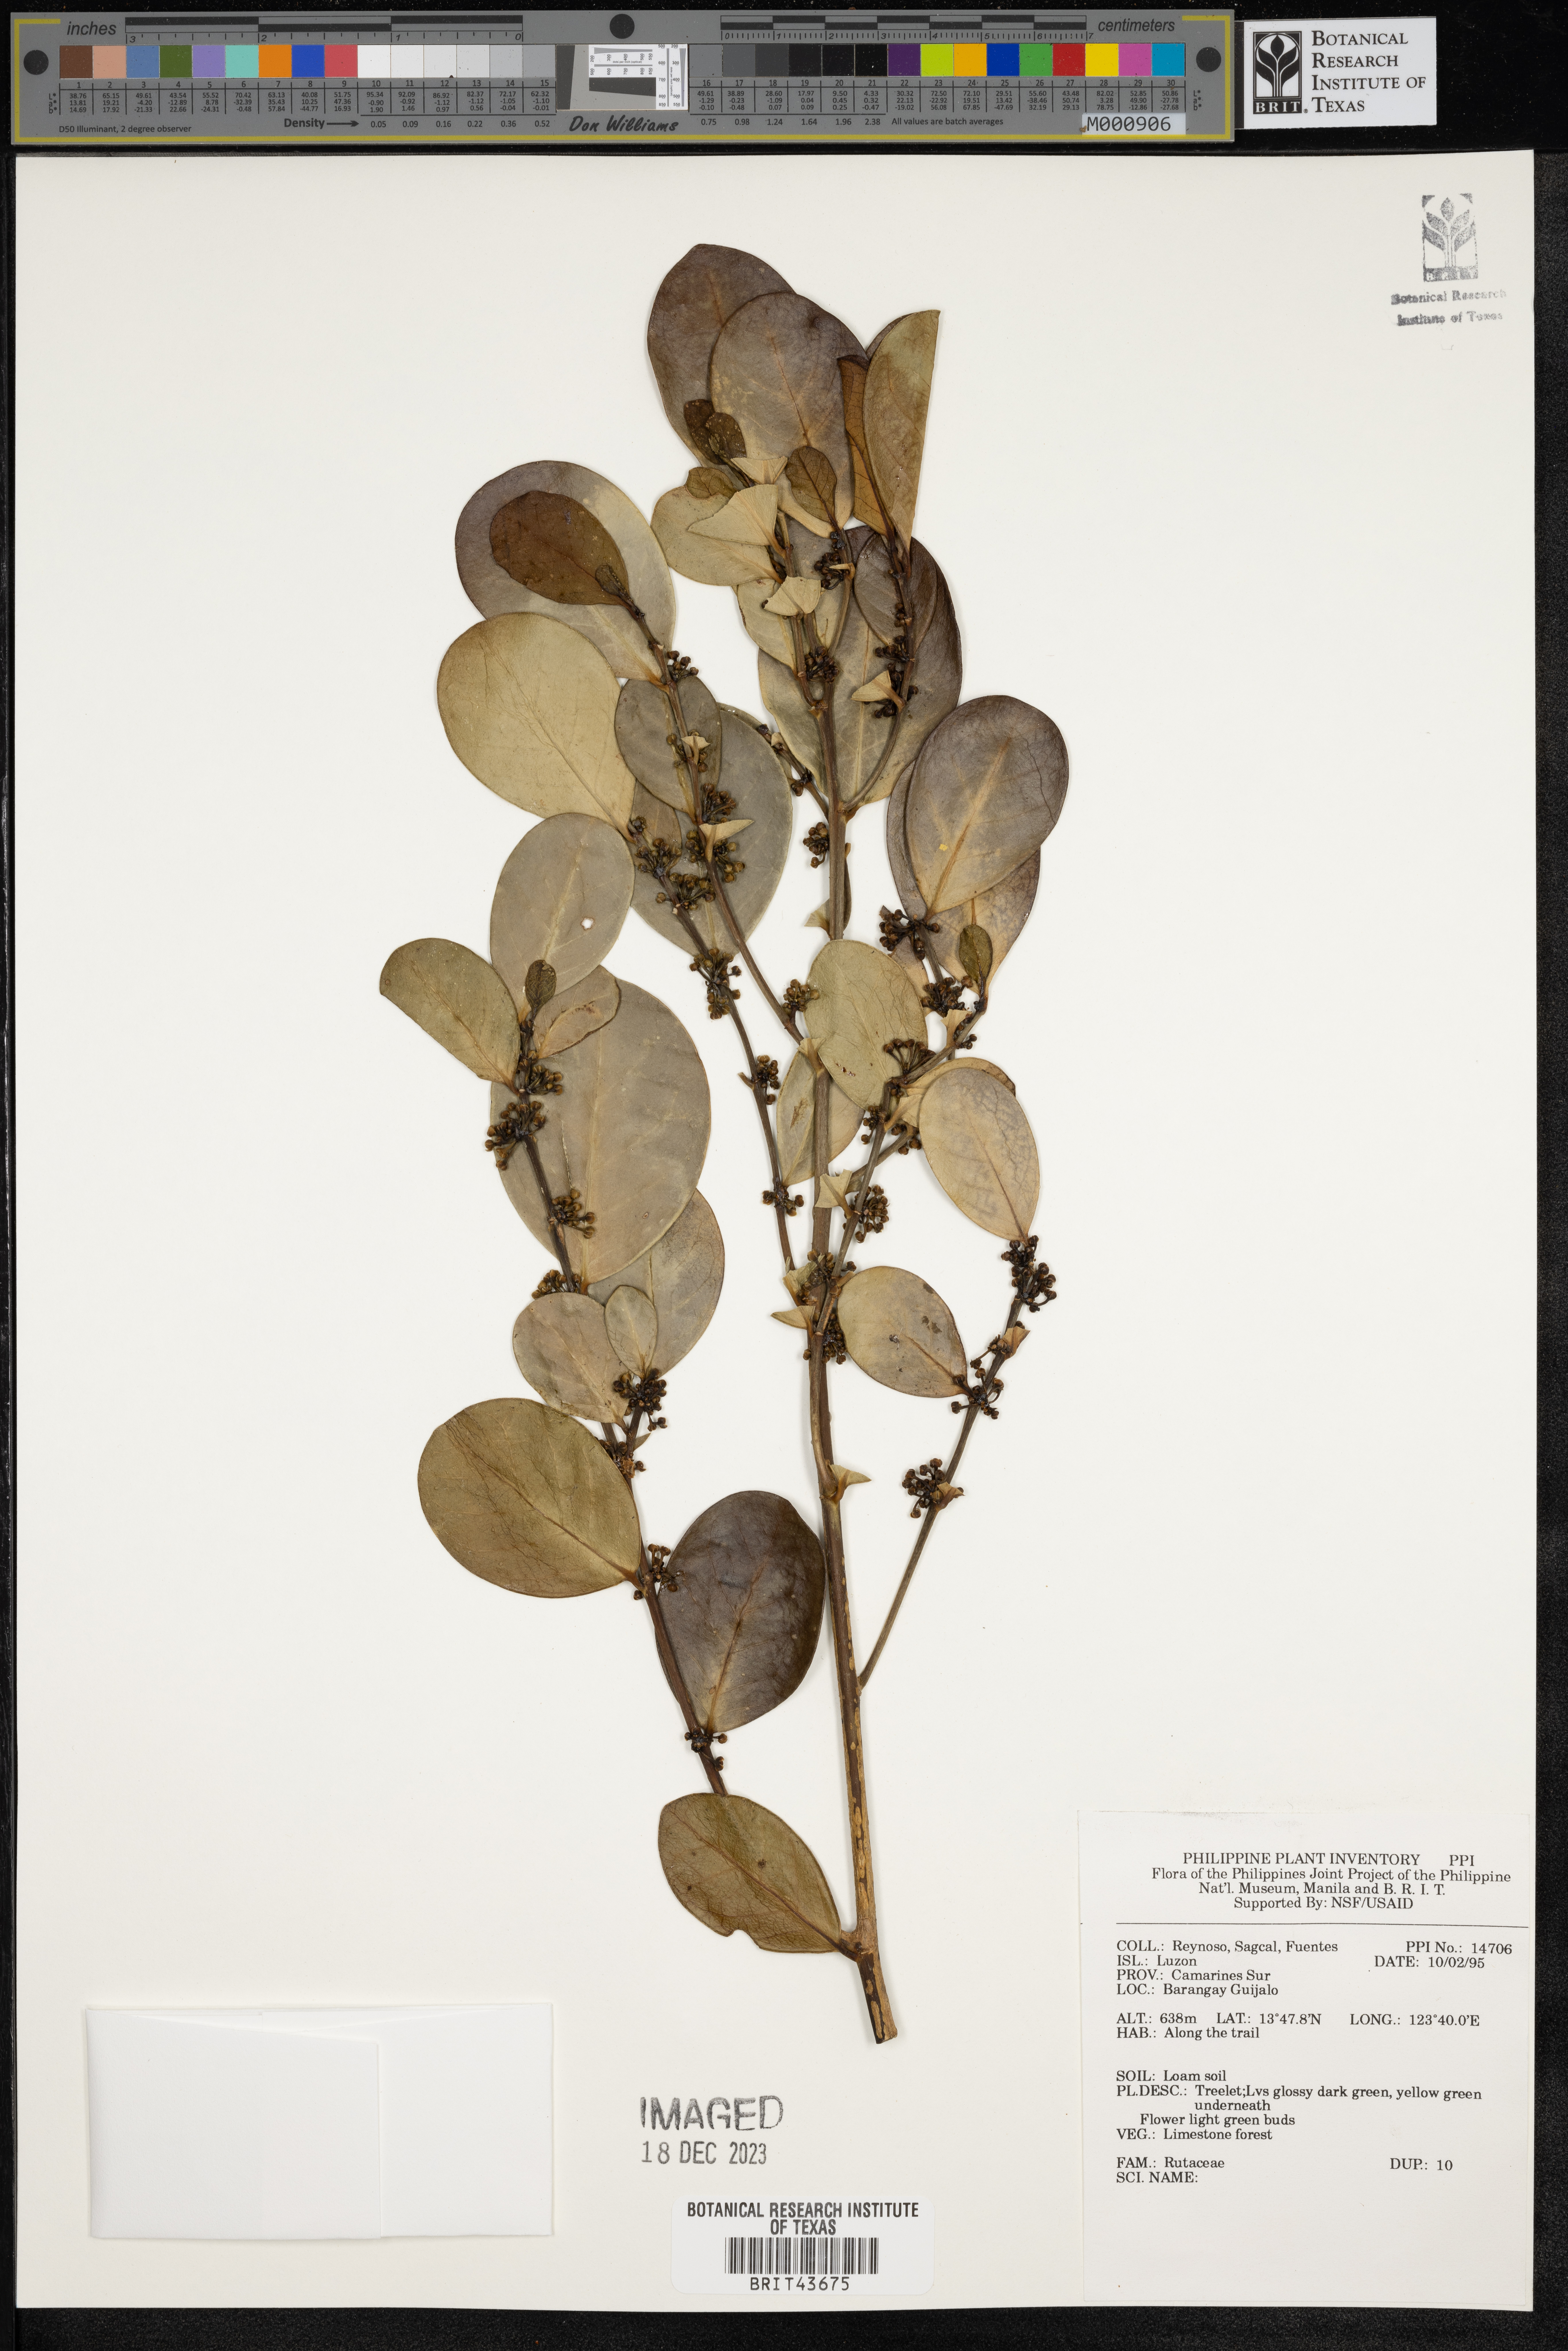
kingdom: Plantae
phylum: Tracheophyta
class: Magnoliopsida
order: Sapindales
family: Rutaceae
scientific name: Rutaceae
